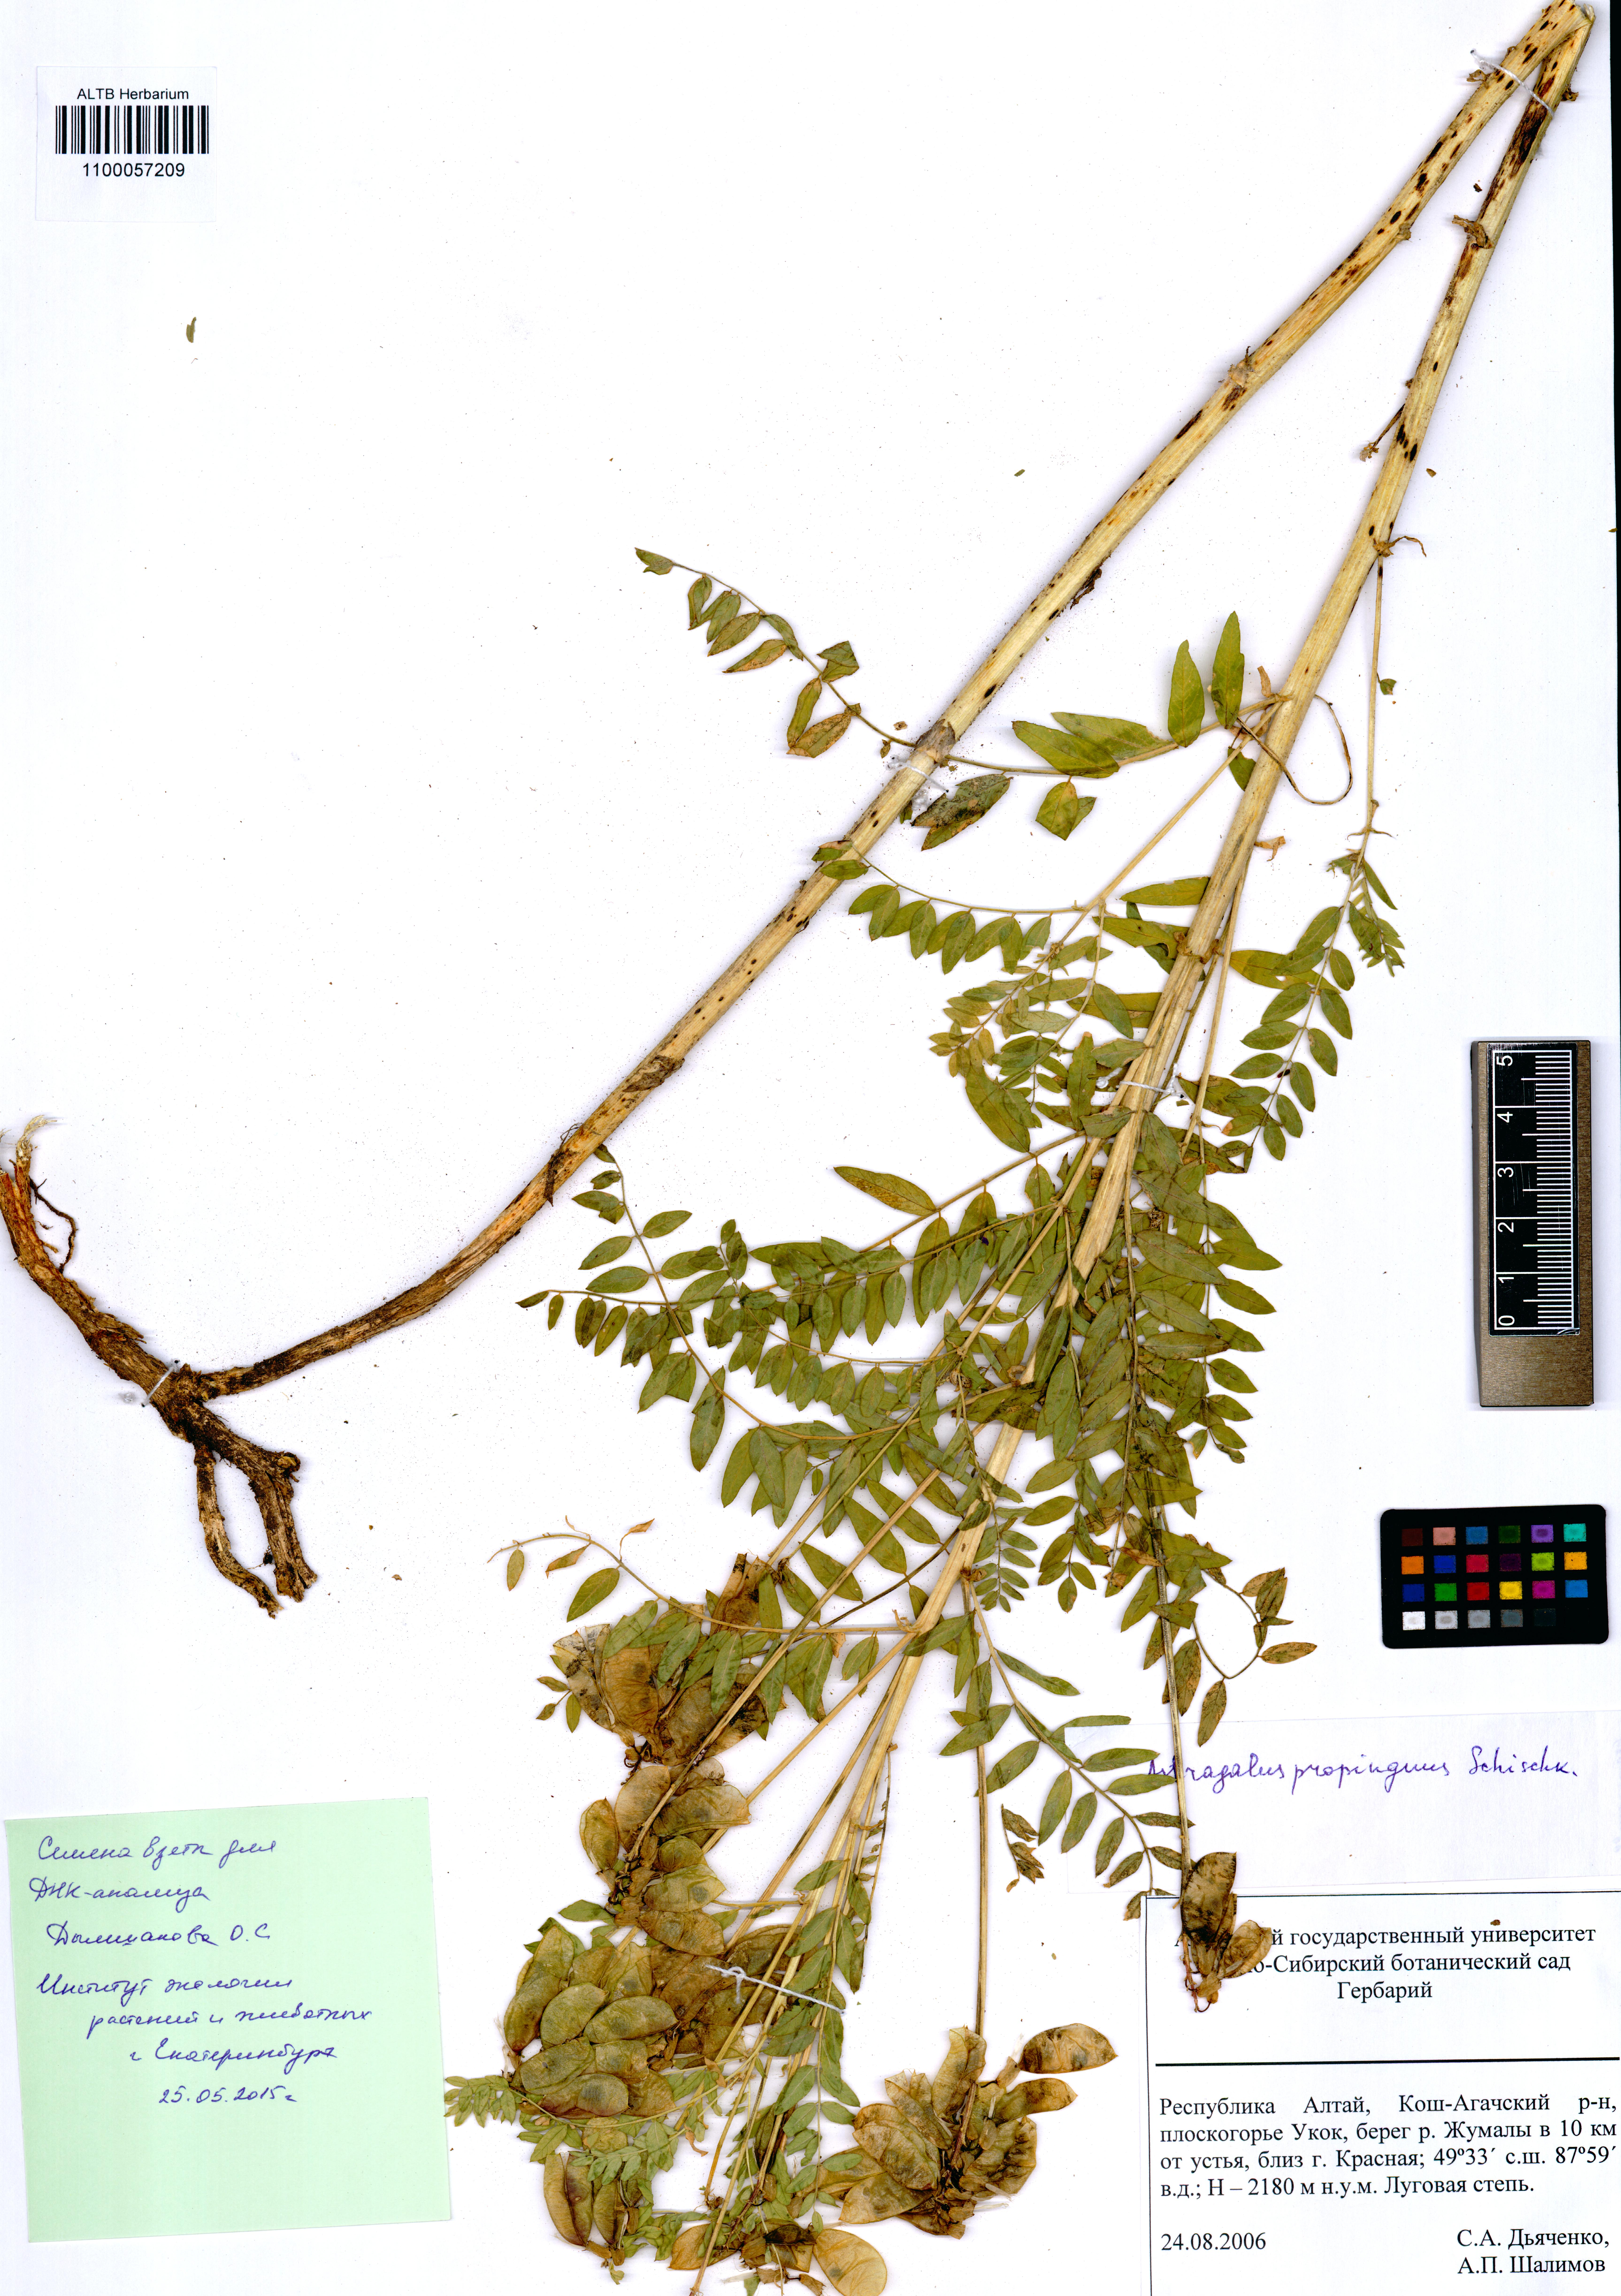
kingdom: Plantae
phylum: Tracheophyta
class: Magnoliopsida
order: Fabales
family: Fabaceae
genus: Astragalus
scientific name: Astragalus mongholicus
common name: Membranous milk-vetch
